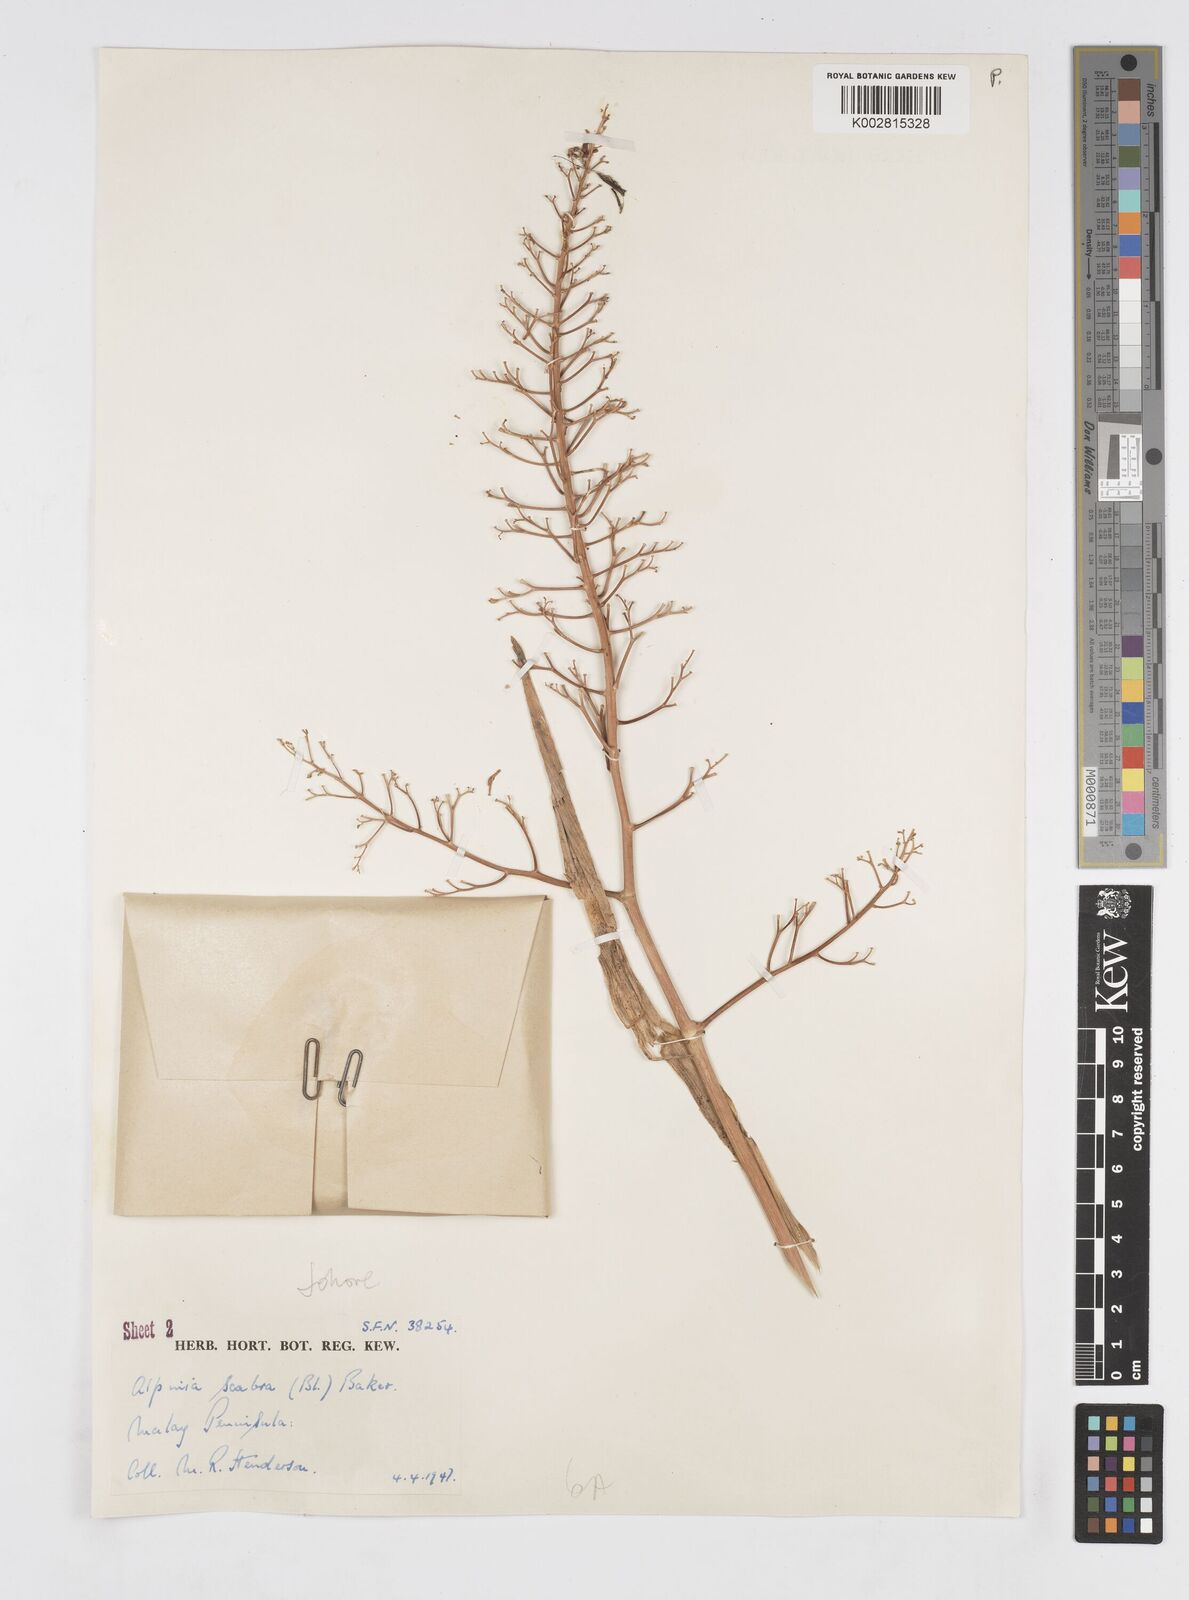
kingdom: Plantae
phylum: Tracheophyta
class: Liliopsida
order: Zingiberales
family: Zingiberaceae
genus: Alpinia
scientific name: Alpinia scabra
